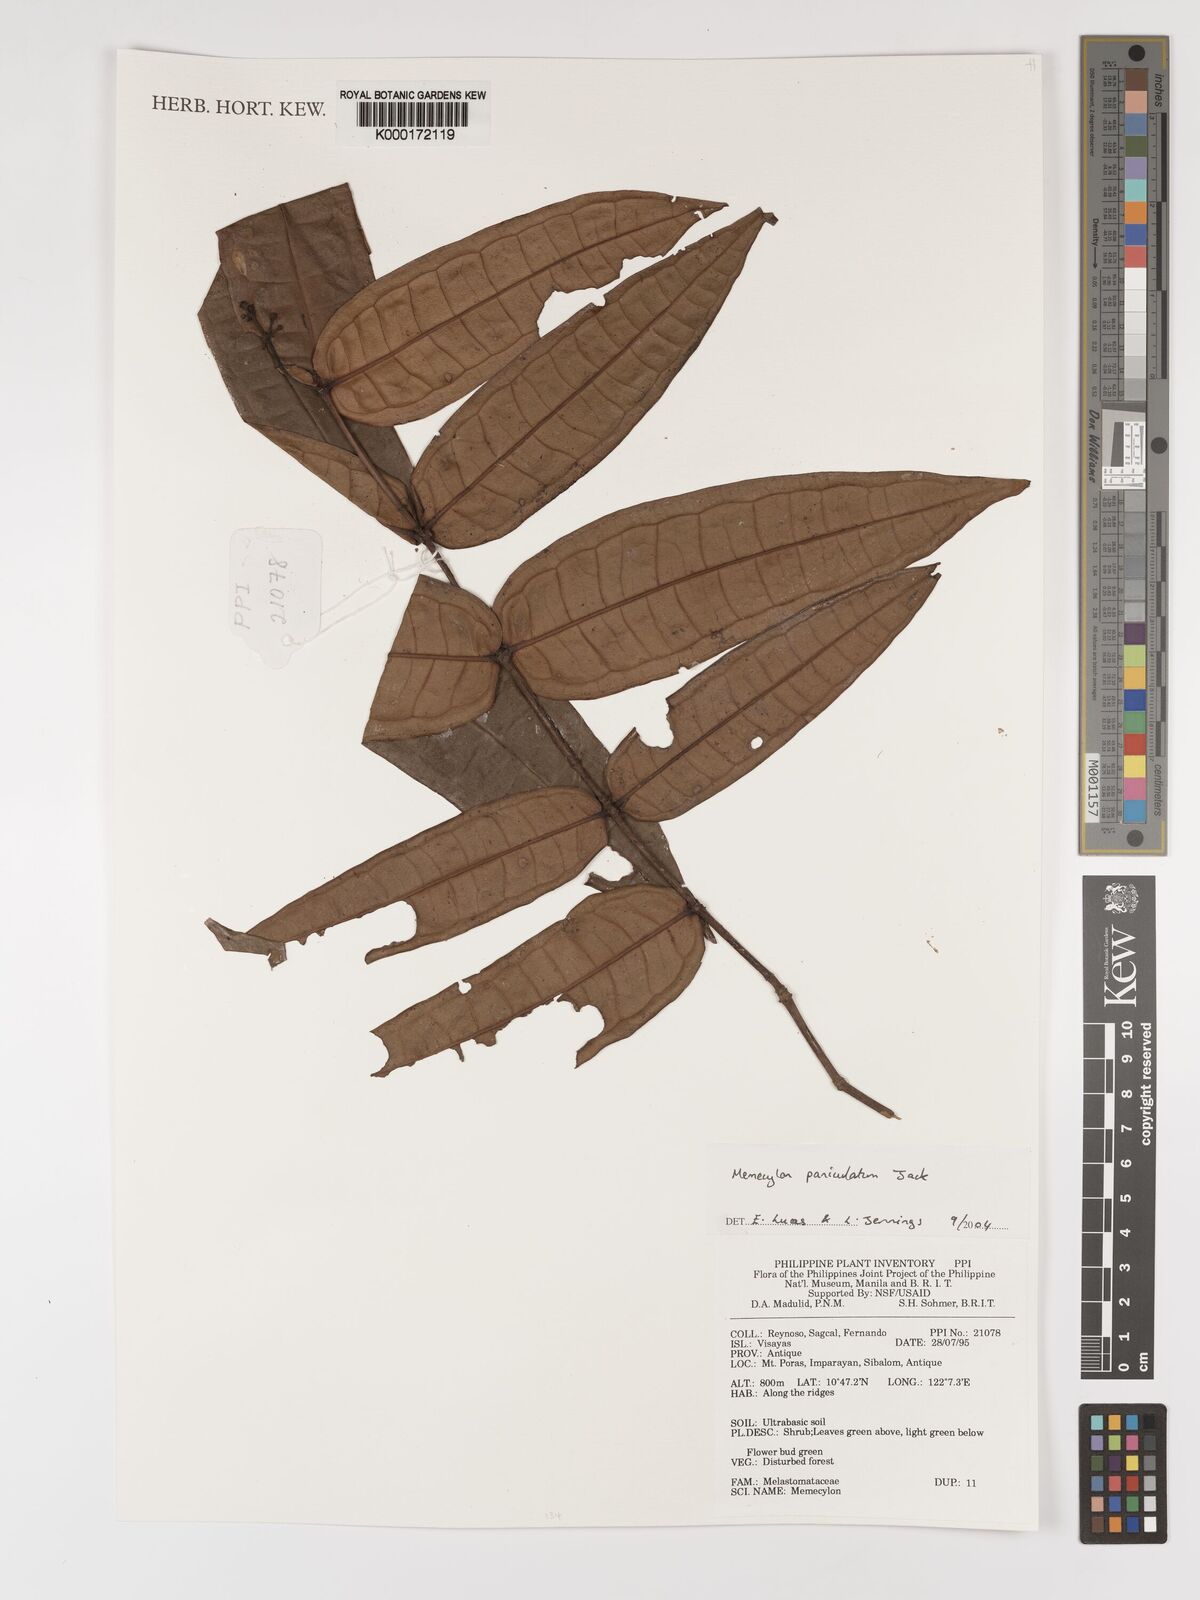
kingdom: Plantae
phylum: Tracheophyta
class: Magnoliopsida
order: Myrtales
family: Melastomataceae
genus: Memecylon
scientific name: Memecylon paniculatum
